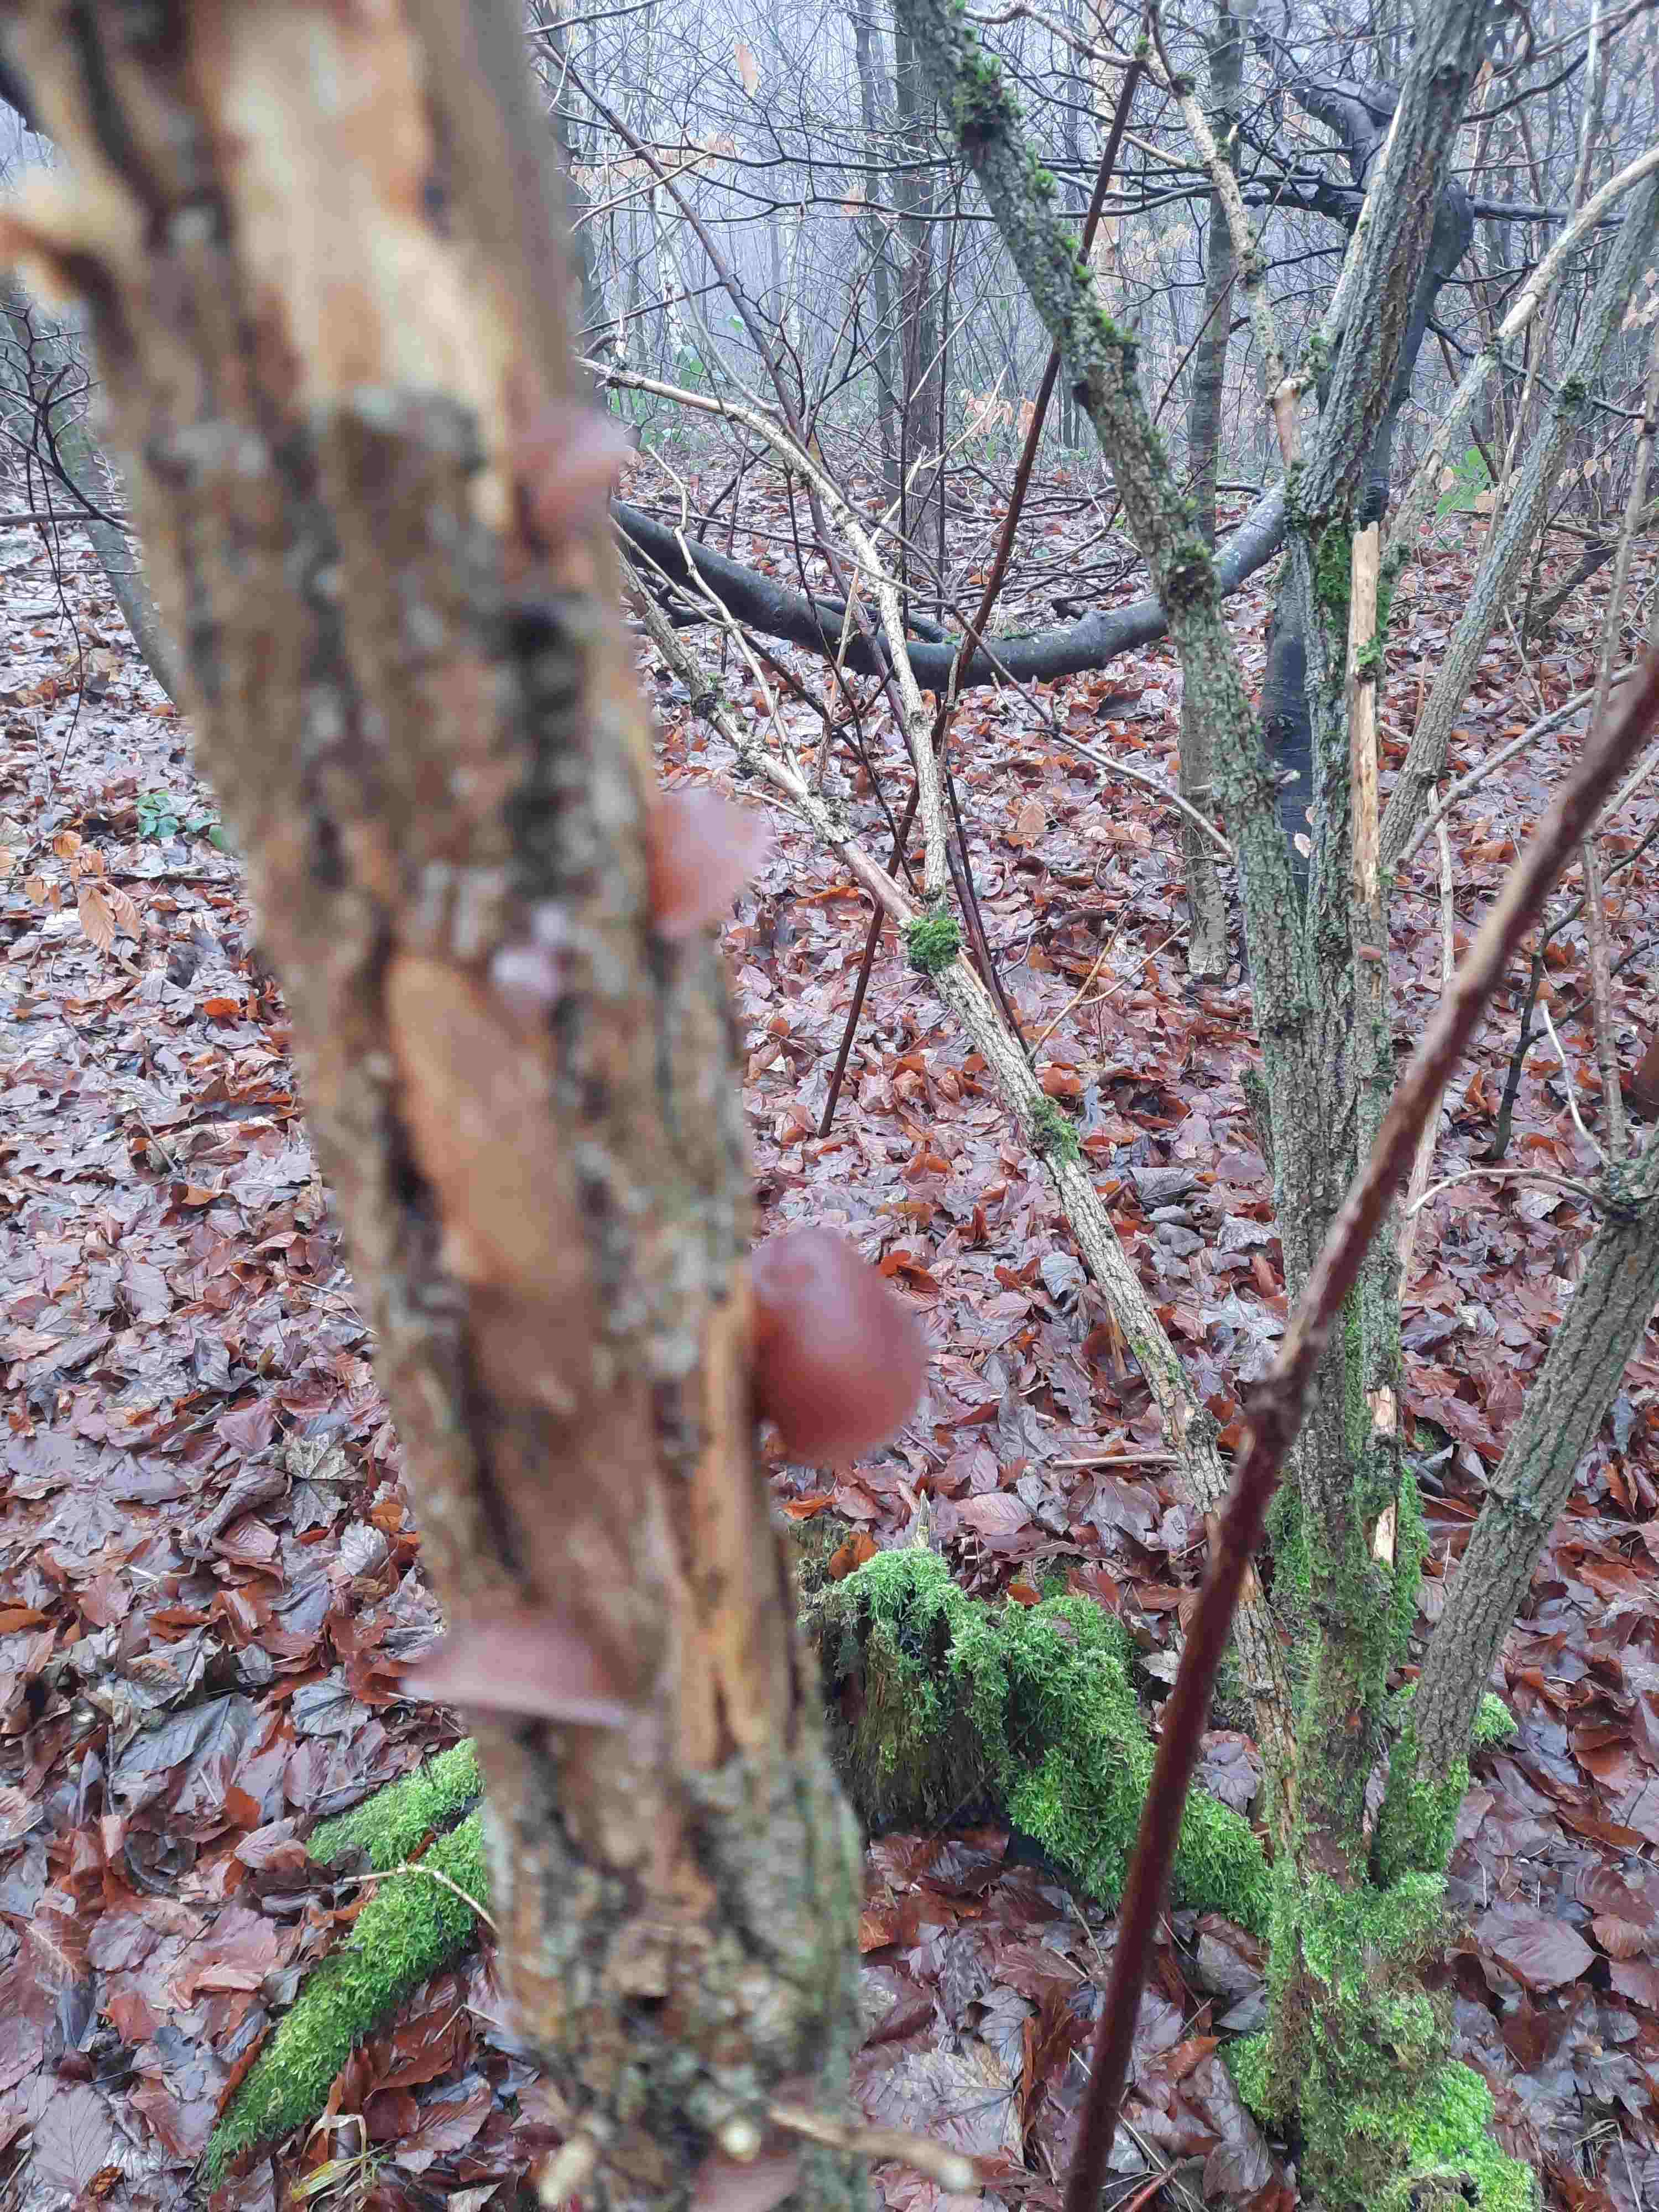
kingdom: Fungi
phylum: Basidiomycota
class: Agaricomycetes
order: Auriculariales
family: Auriculariaceae
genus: Auricularia
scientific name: Auricularia auricula-judae
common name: almindelig judasøre
